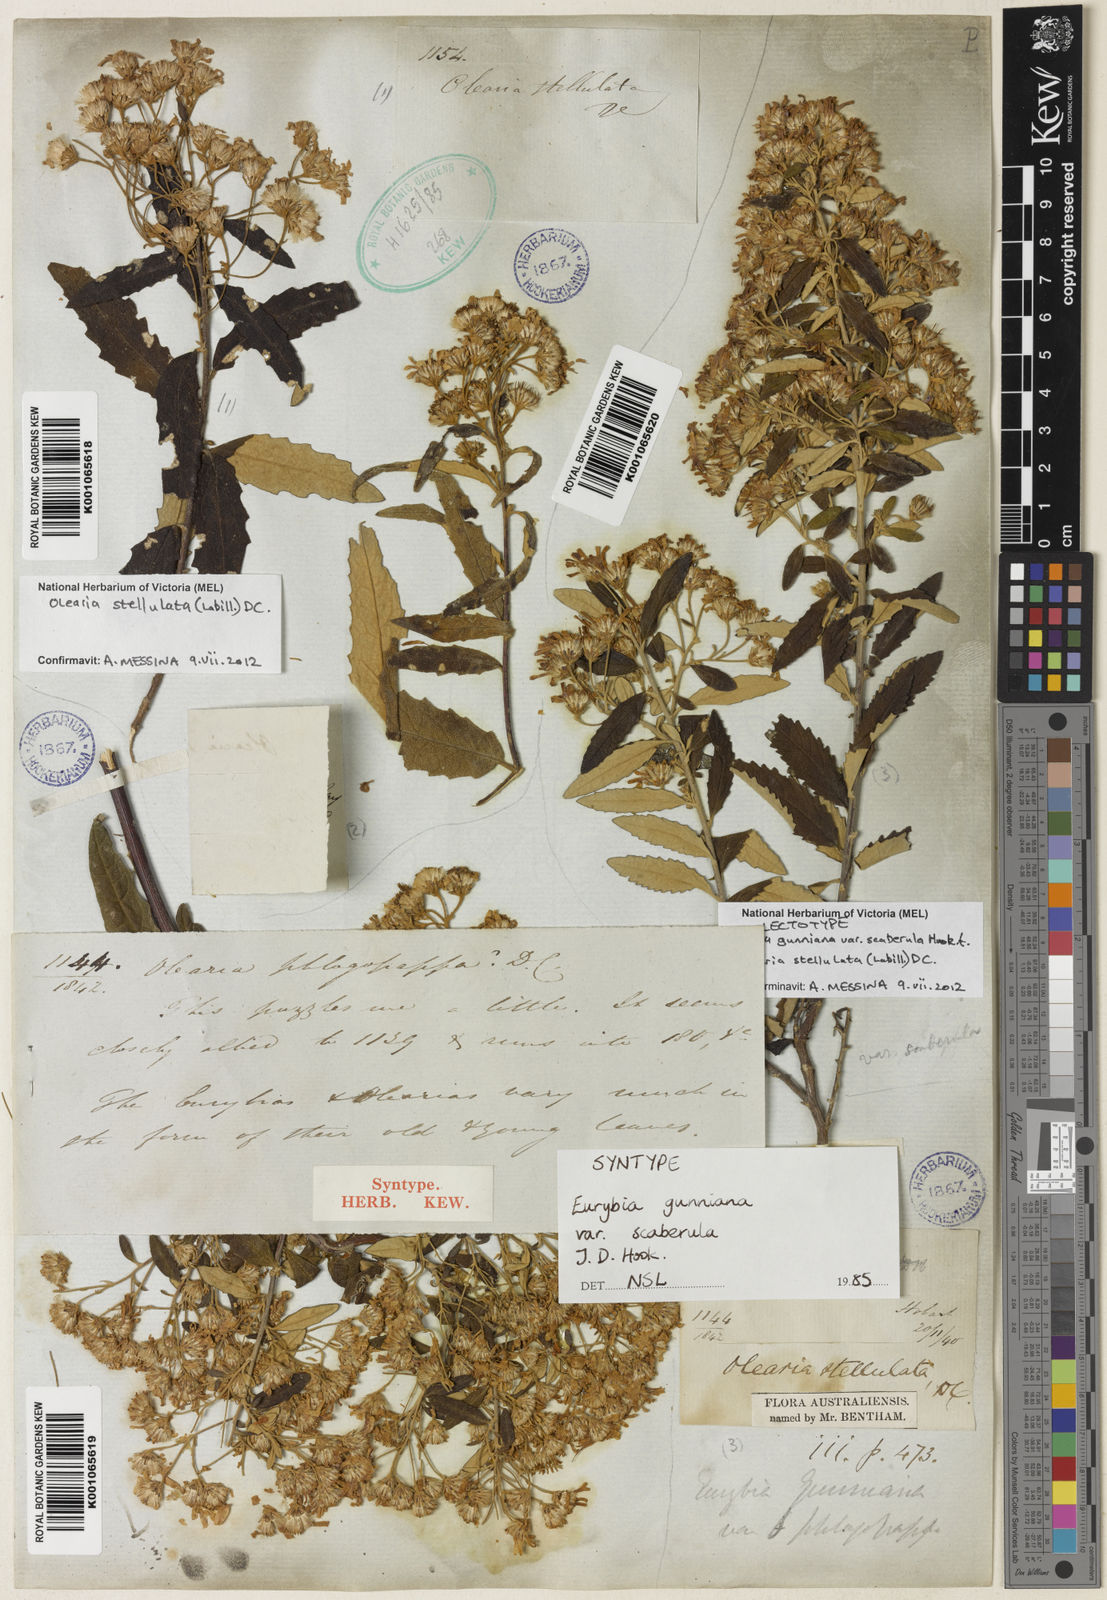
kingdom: Plantae
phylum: Tracheophyta
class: Magnoliopsida
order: Asterales
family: Asteraceae
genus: Olearia
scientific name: Olearia phlogopappa
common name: Alpine daisybush
